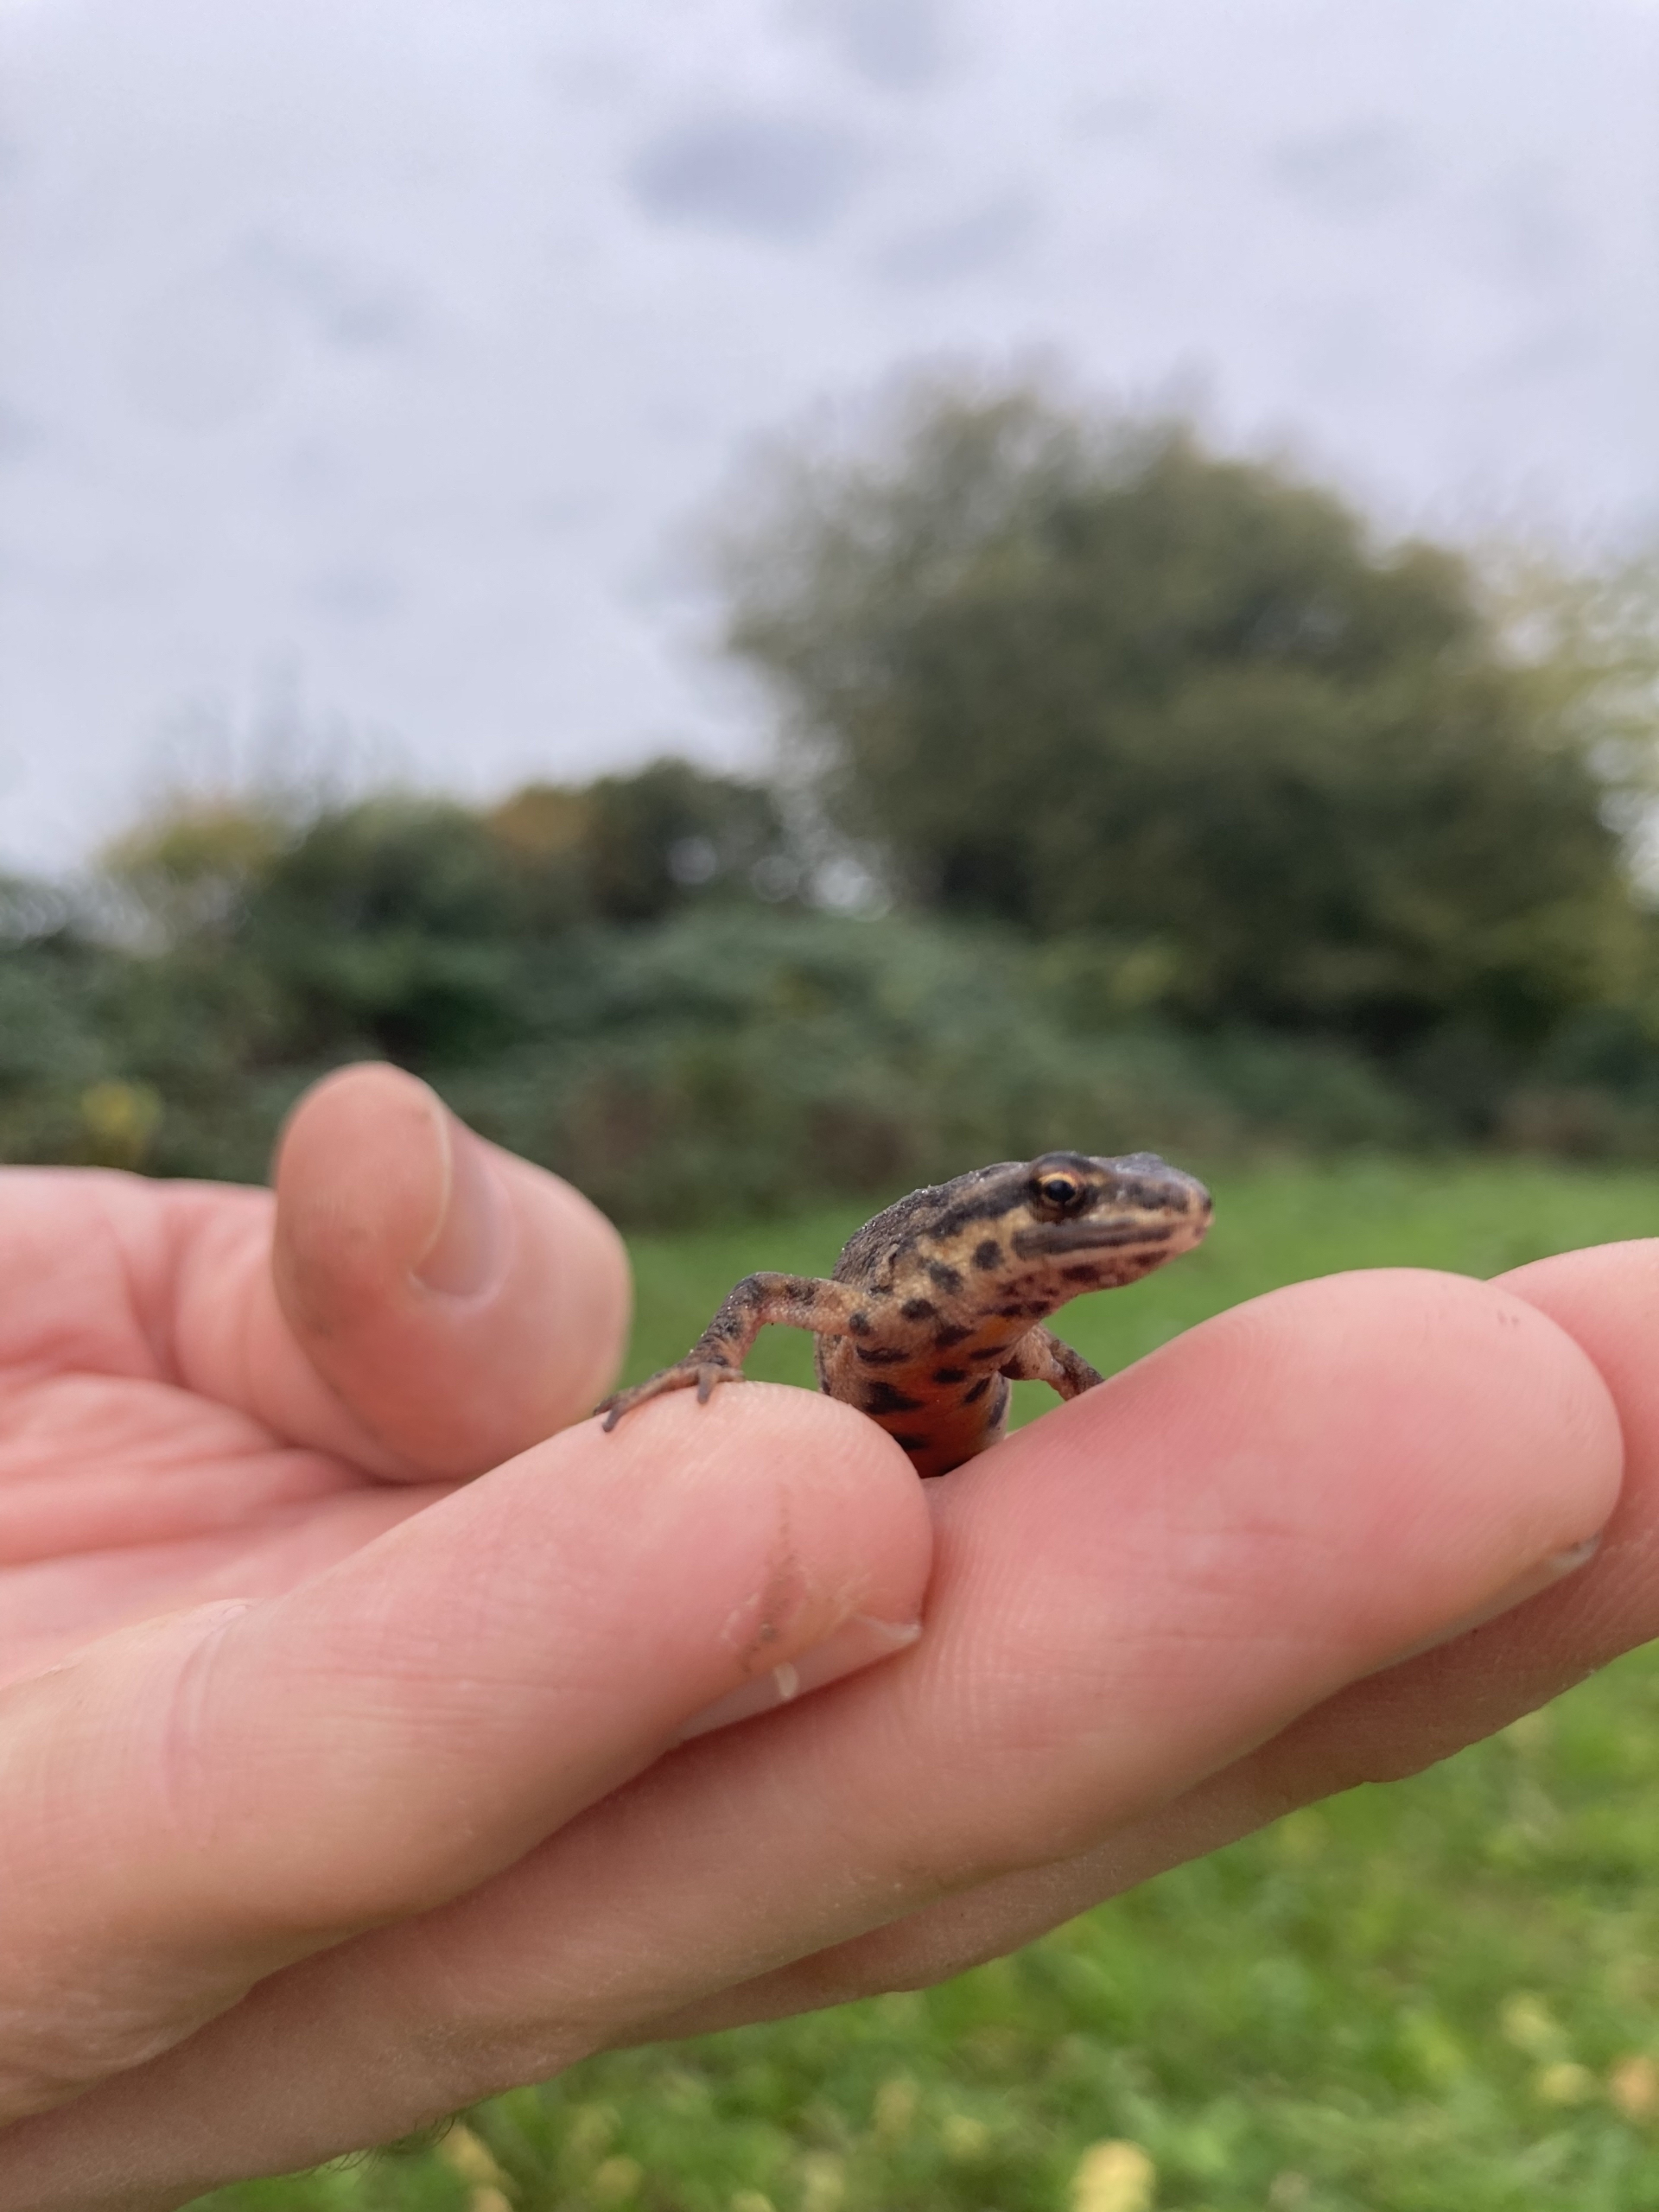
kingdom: Animalia
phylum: Chordata
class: Amphibia
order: Caudata
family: Salamandridae
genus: Lissotriton
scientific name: Lissotriton vulgaris
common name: Lille vandsalamander
